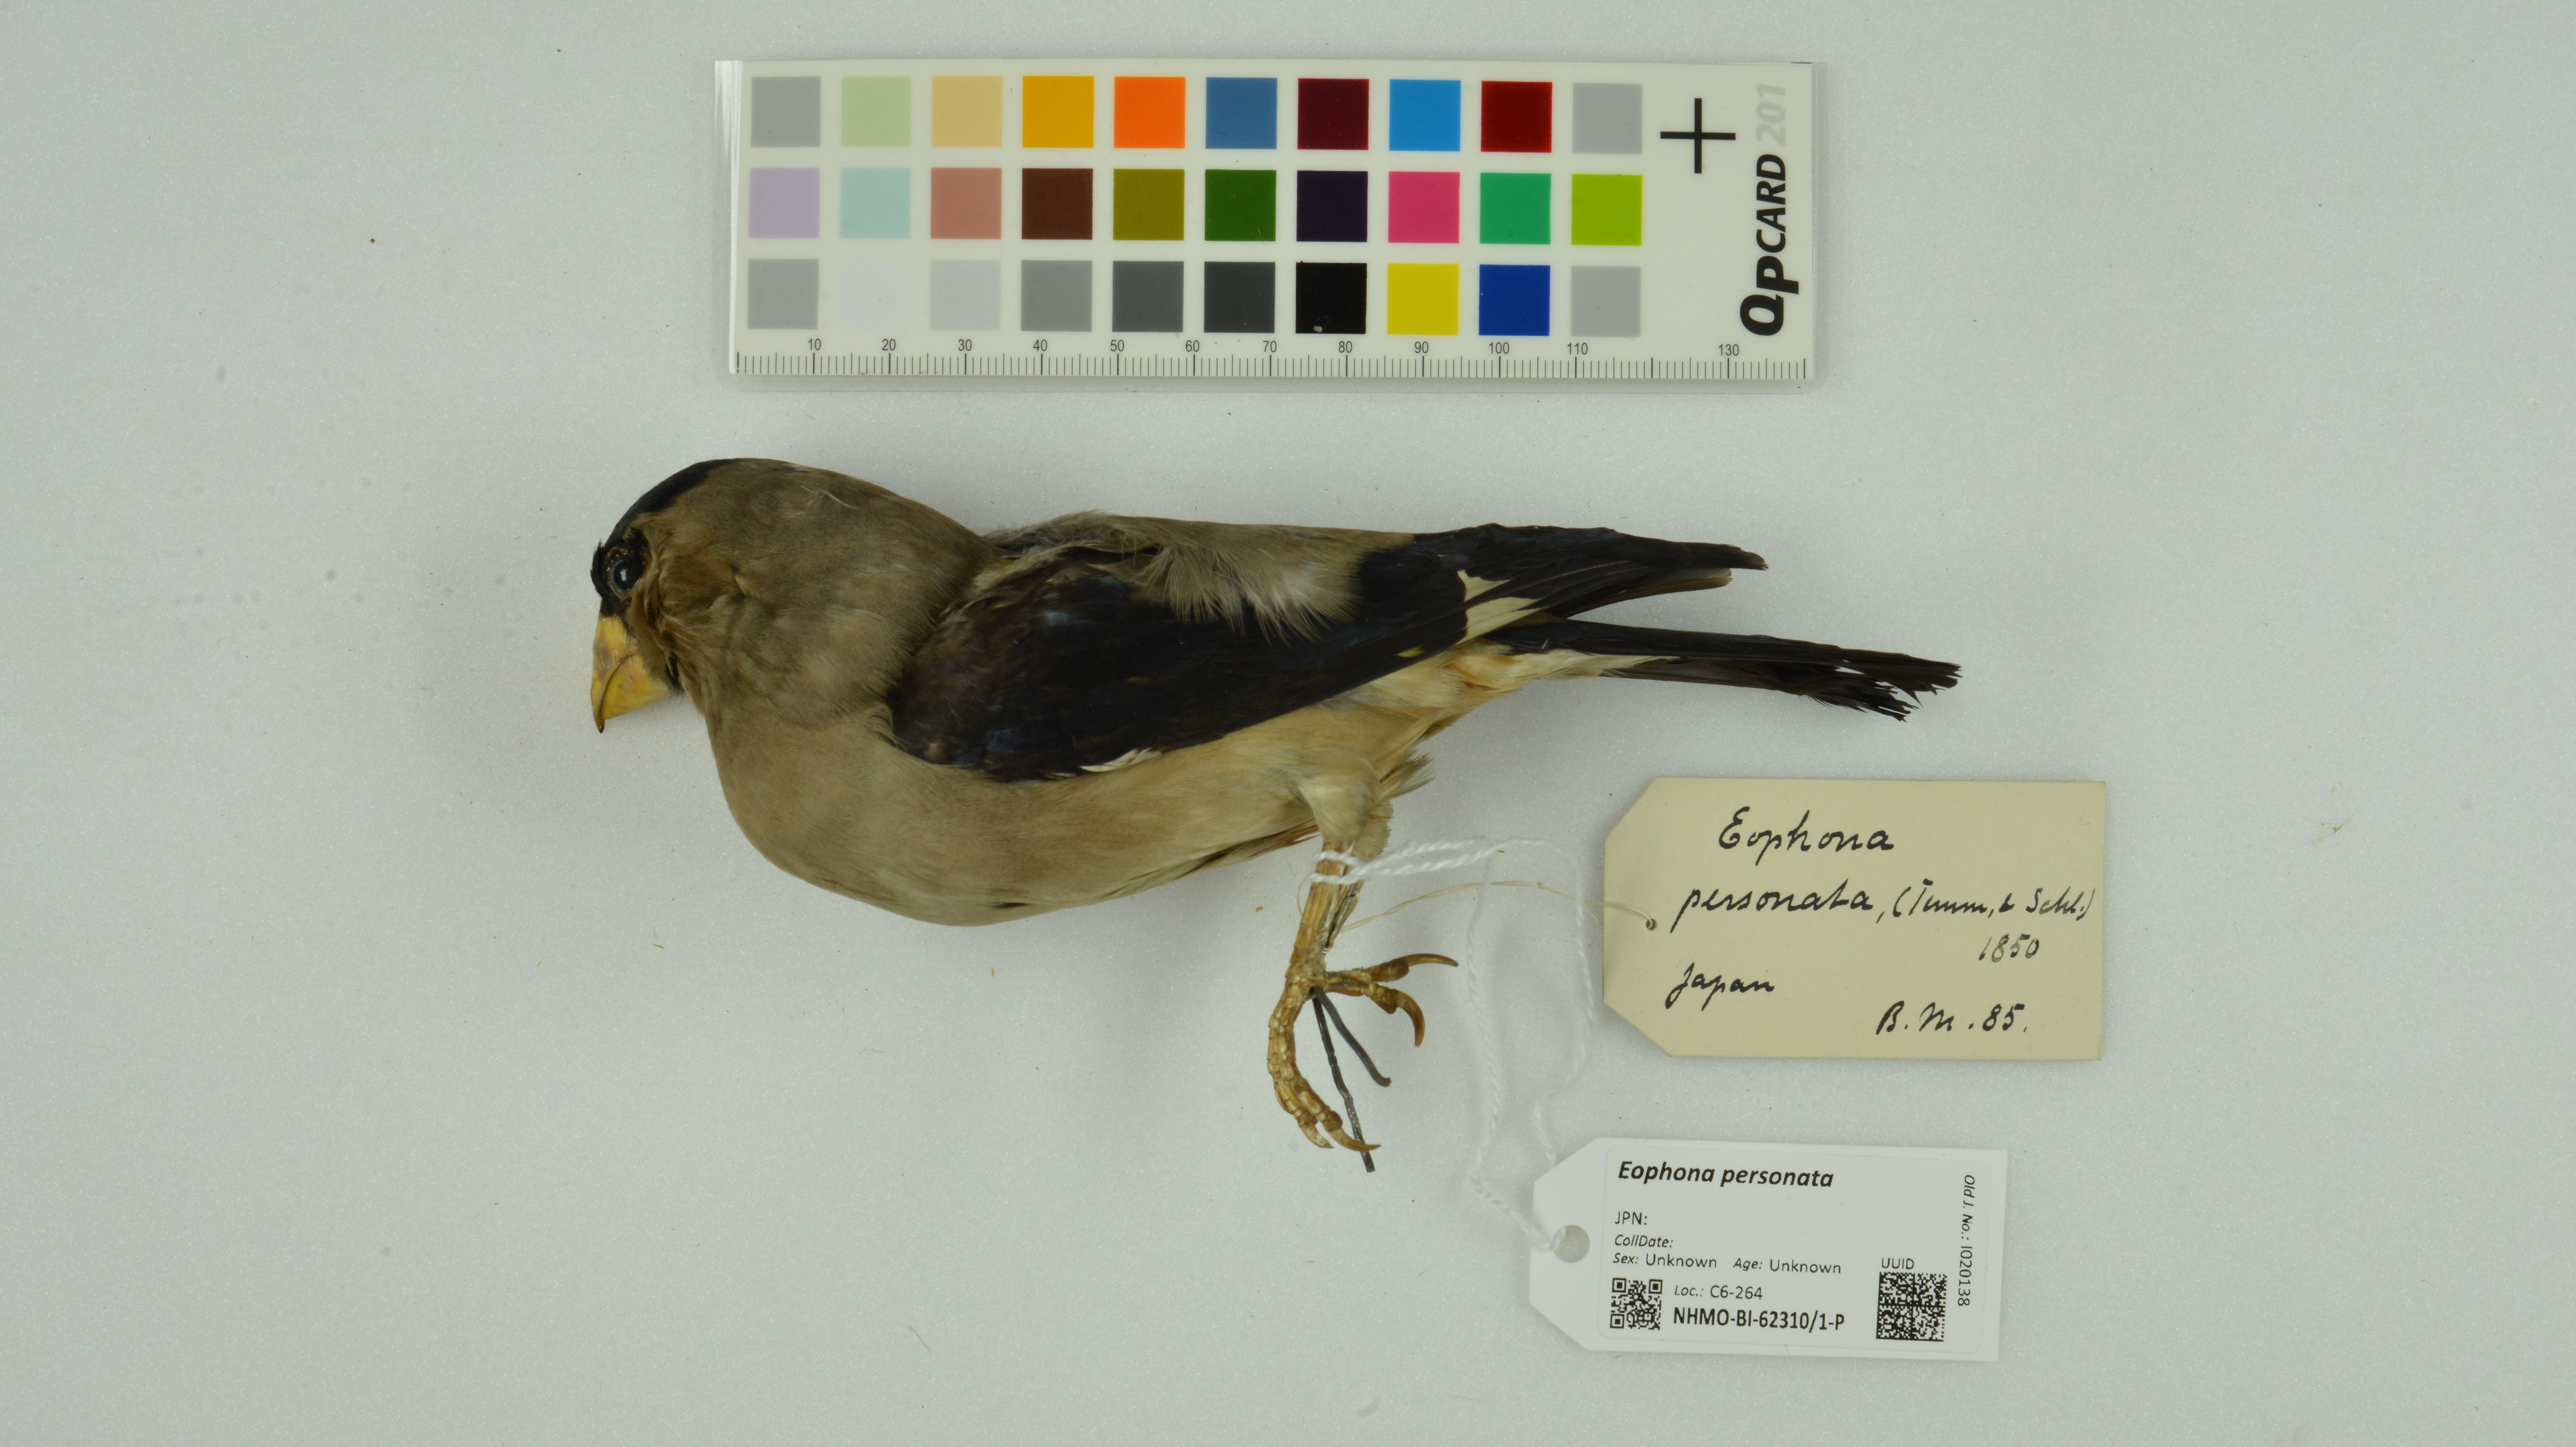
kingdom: Animalia
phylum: Chordata
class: Aves
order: Passeriformes
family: Fringillidae
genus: Eophona
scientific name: Eophona personata
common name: Japanese grosbeak
